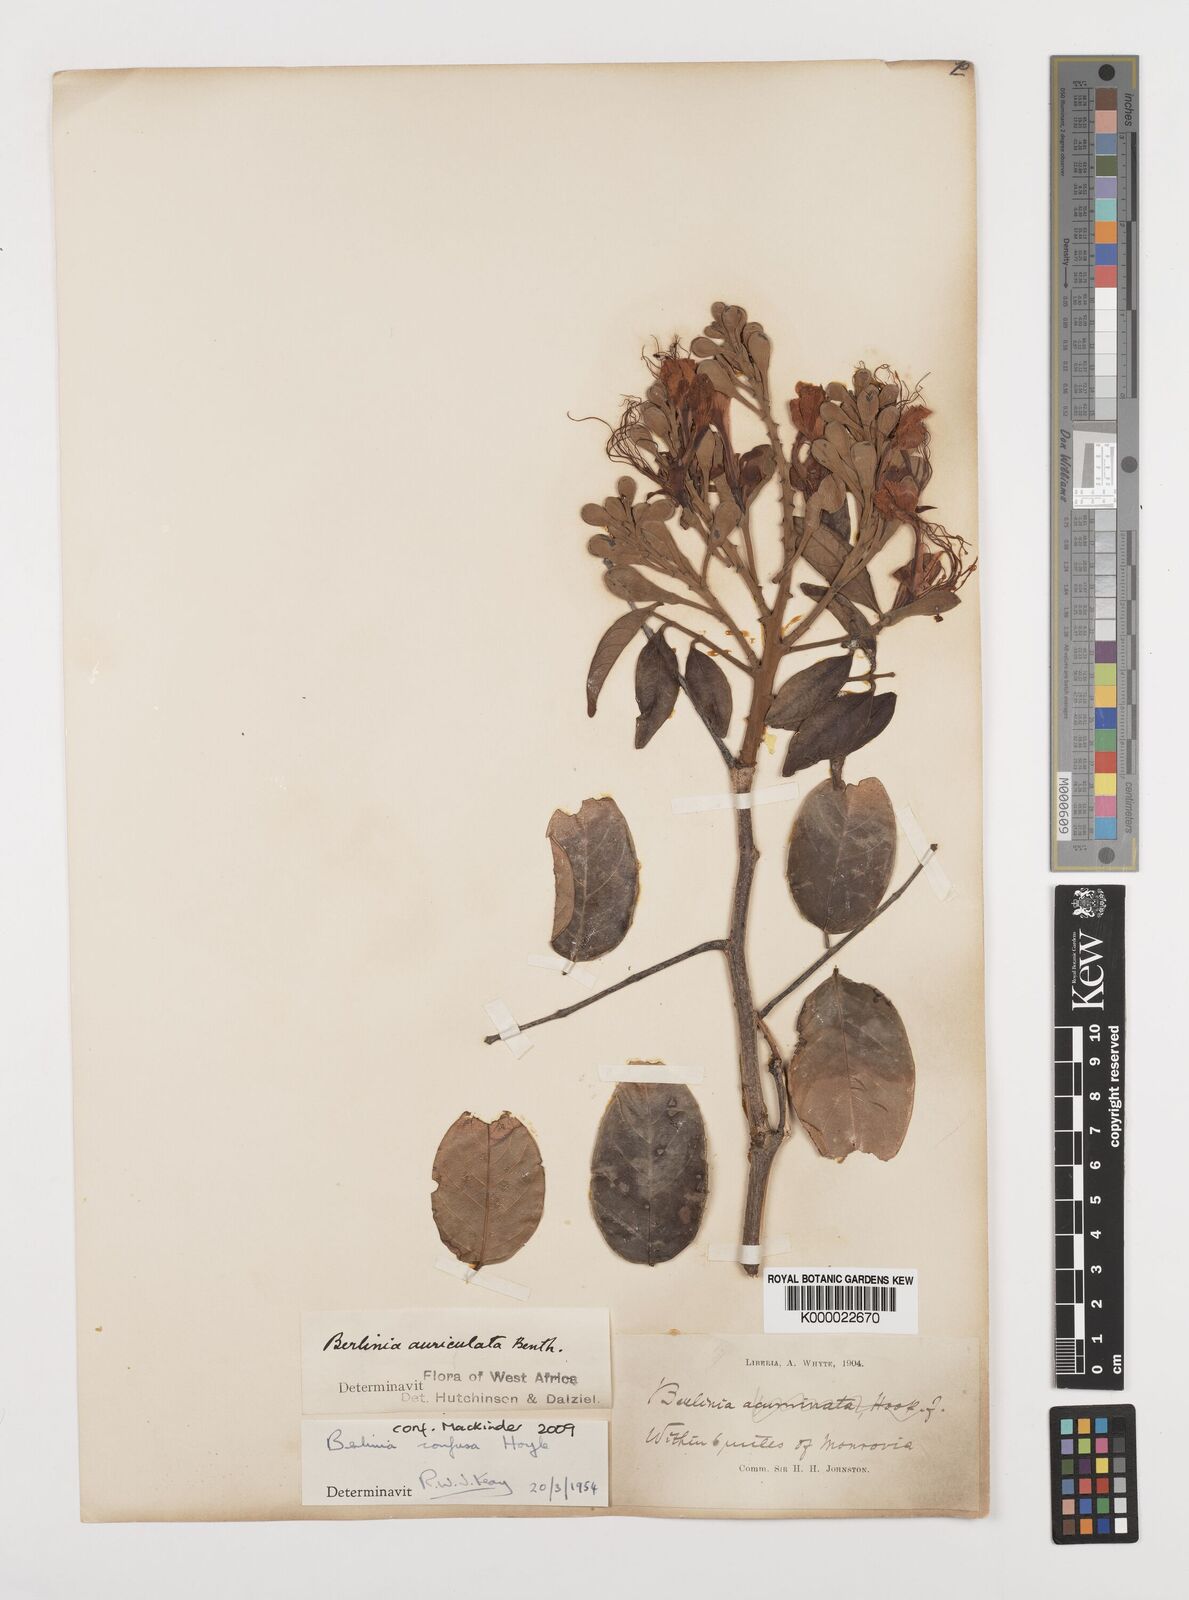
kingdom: Plantae
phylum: Tracheophyta
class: Magnoliopsida
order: Fabales
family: Fabaceae
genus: Berlinia
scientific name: Berlinia confusa
